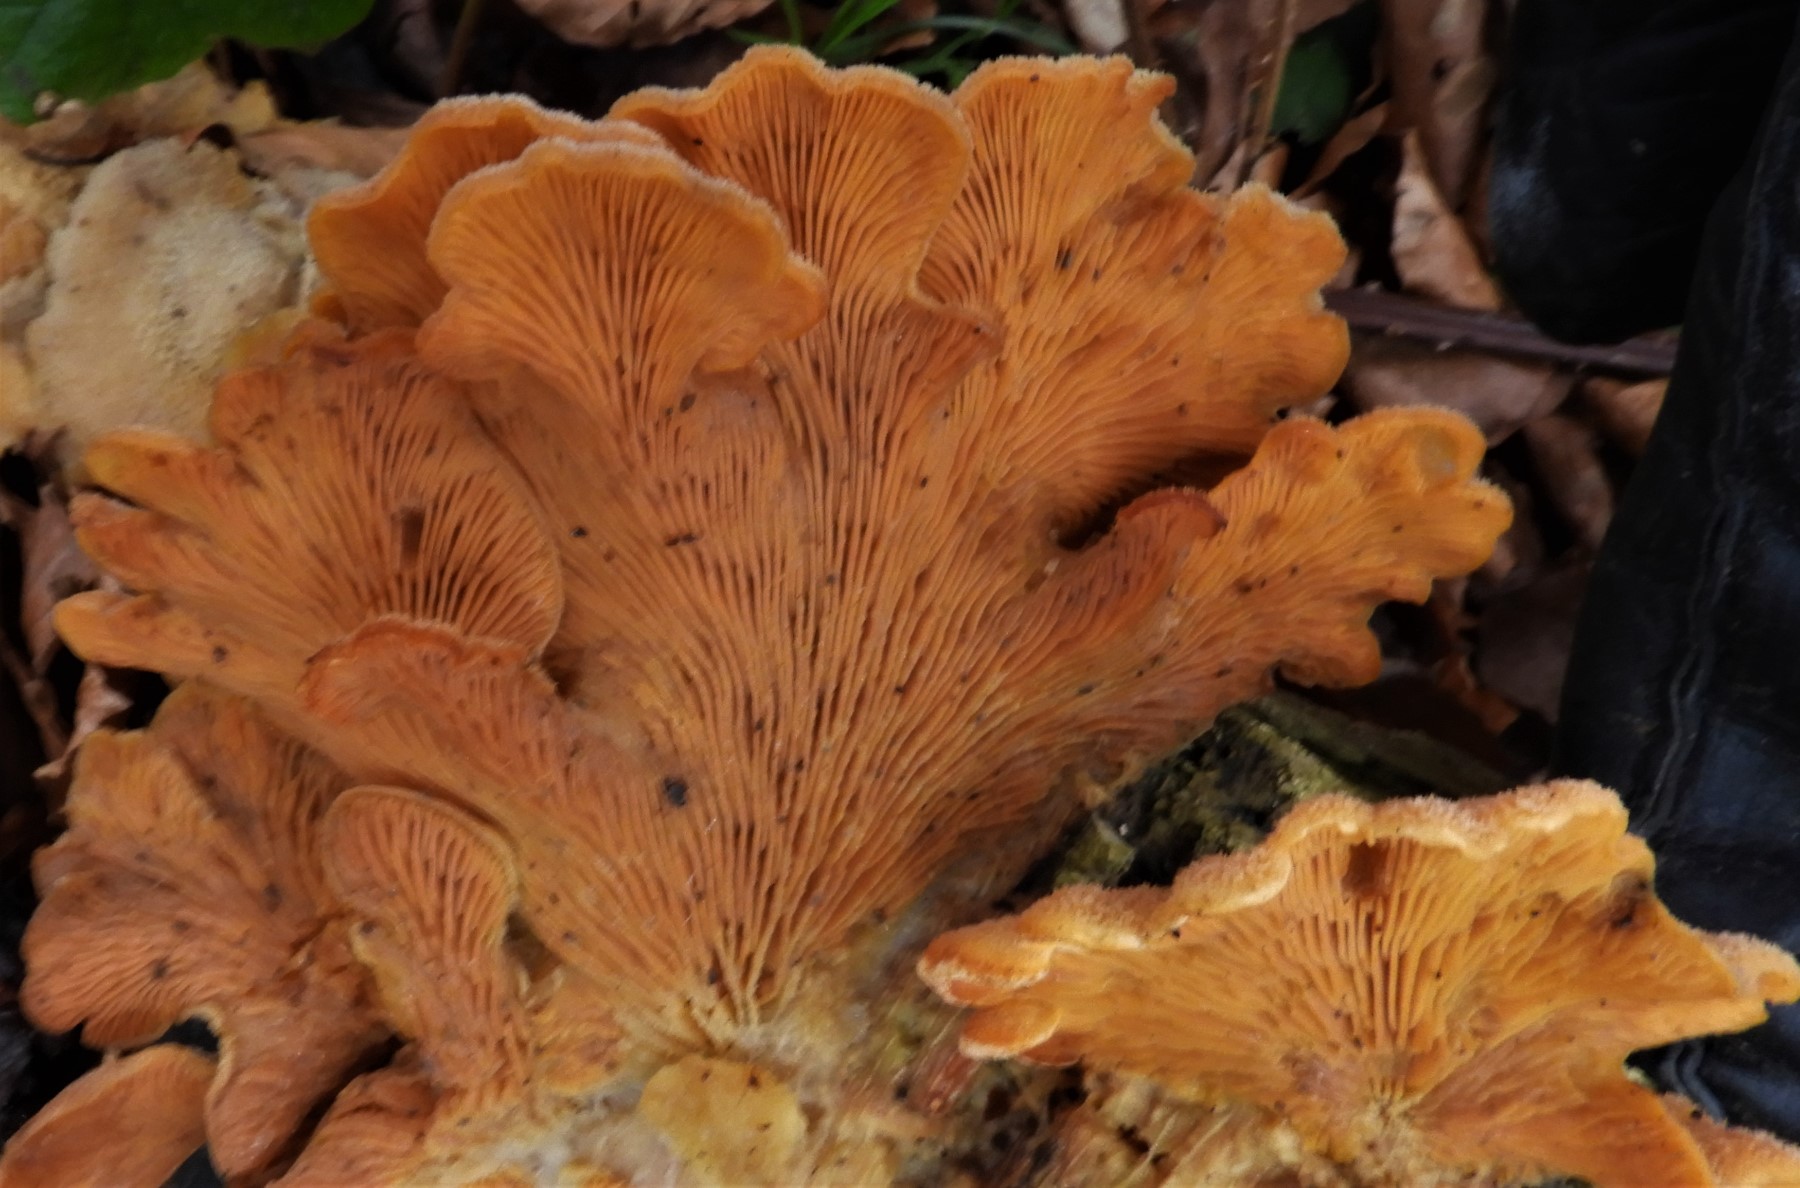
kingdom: Fungi
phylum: Basidiomycota
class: Agaricomycetes
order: Agaricales
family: Phyllotopsidaceae
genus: Phyllotopsis
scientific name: Phyllotopsis nidulans
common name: okkerblad
